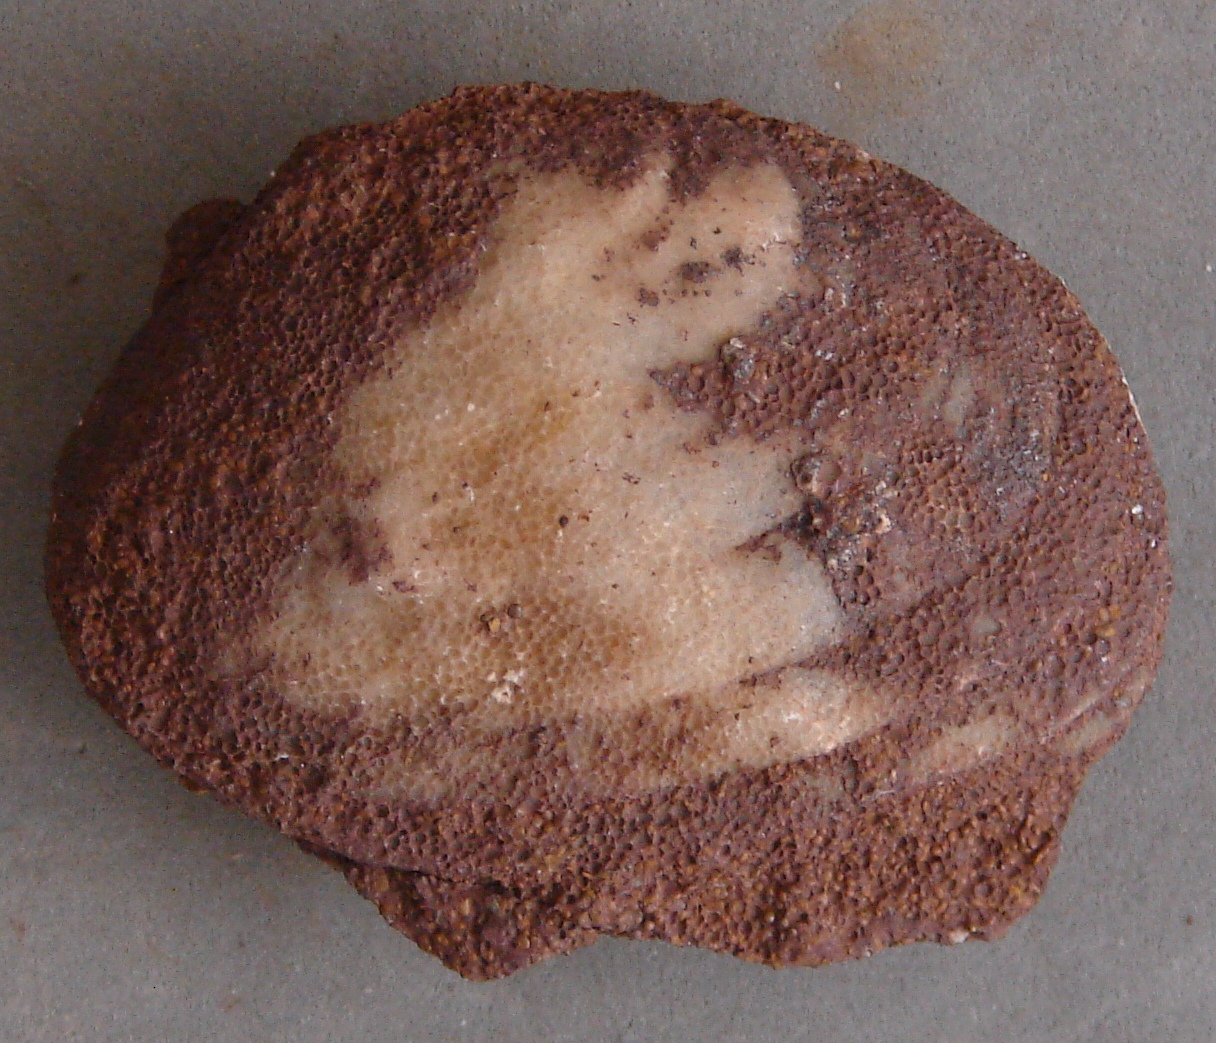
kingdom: Animalia
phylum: Mollusca
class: Bivalvia
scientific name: Bivalvia
